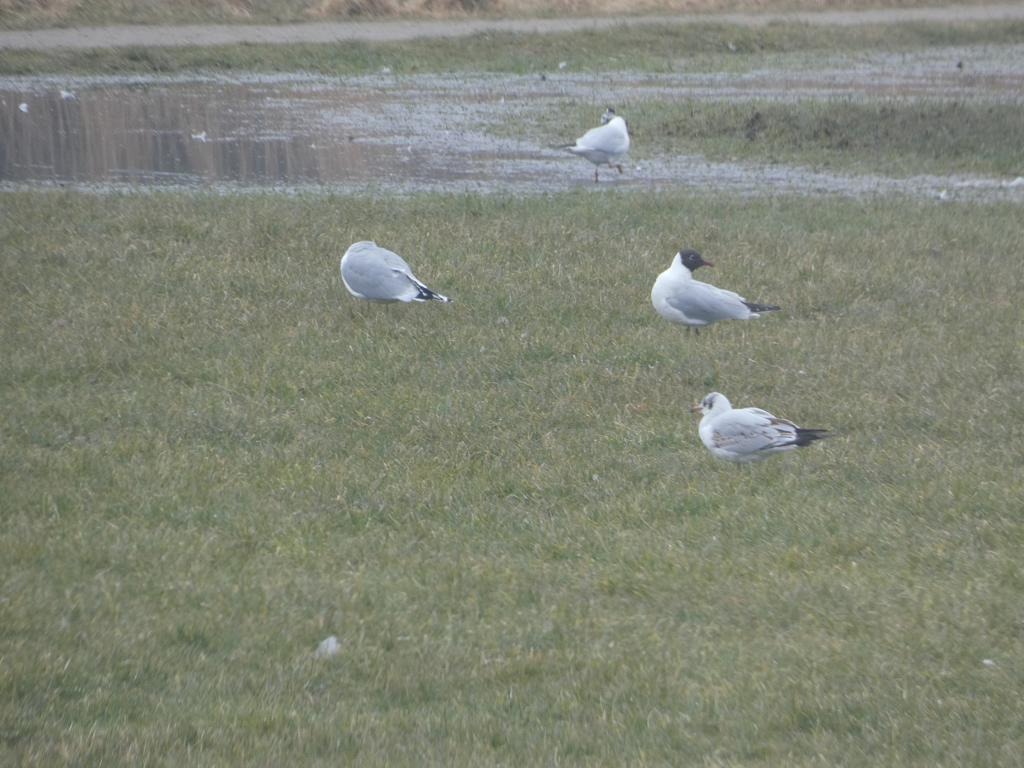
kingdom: Animalia
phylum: Chordata
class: Aves
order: Charadriiformes
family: Laridae
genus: Chroicocephalus
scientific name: Chroicocephalus ridibundus
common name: Hættemåge
